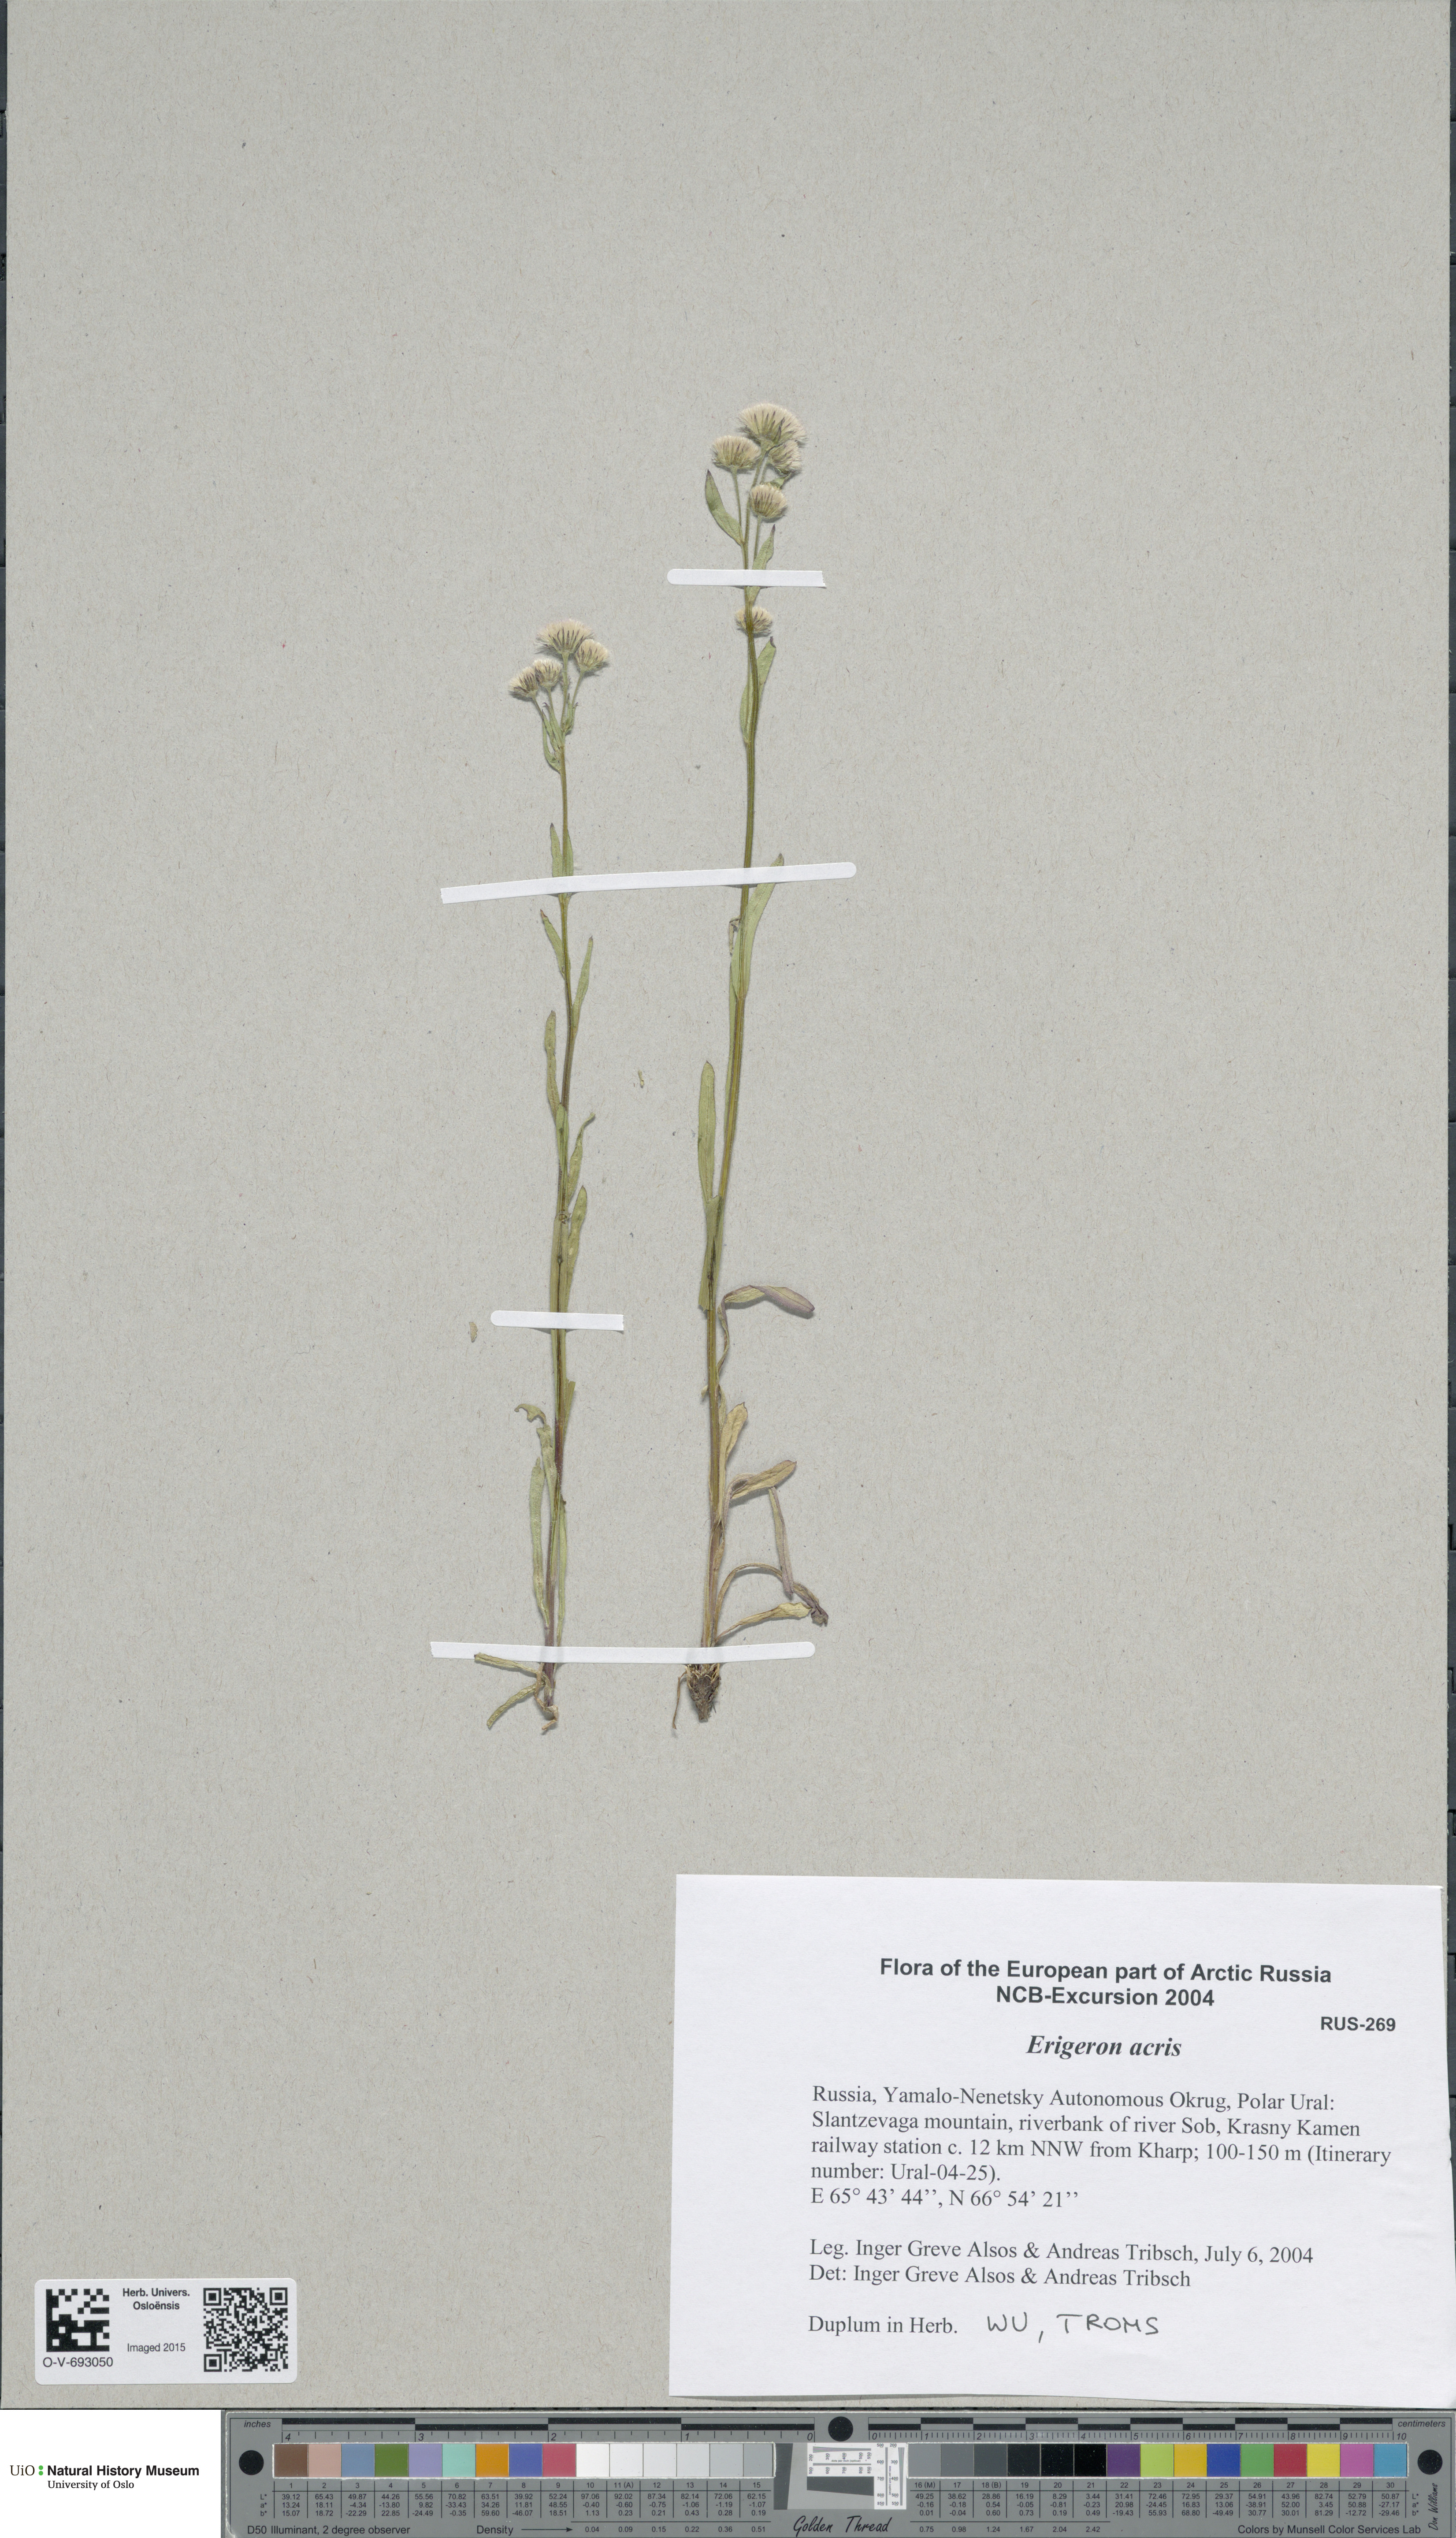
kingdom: Plantae
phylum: Tracheophyta
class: Magnoliopsida
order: Asterales
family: Asteraceae
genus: Erigeron
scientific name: Erigeron acris
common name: Blue fleabane
